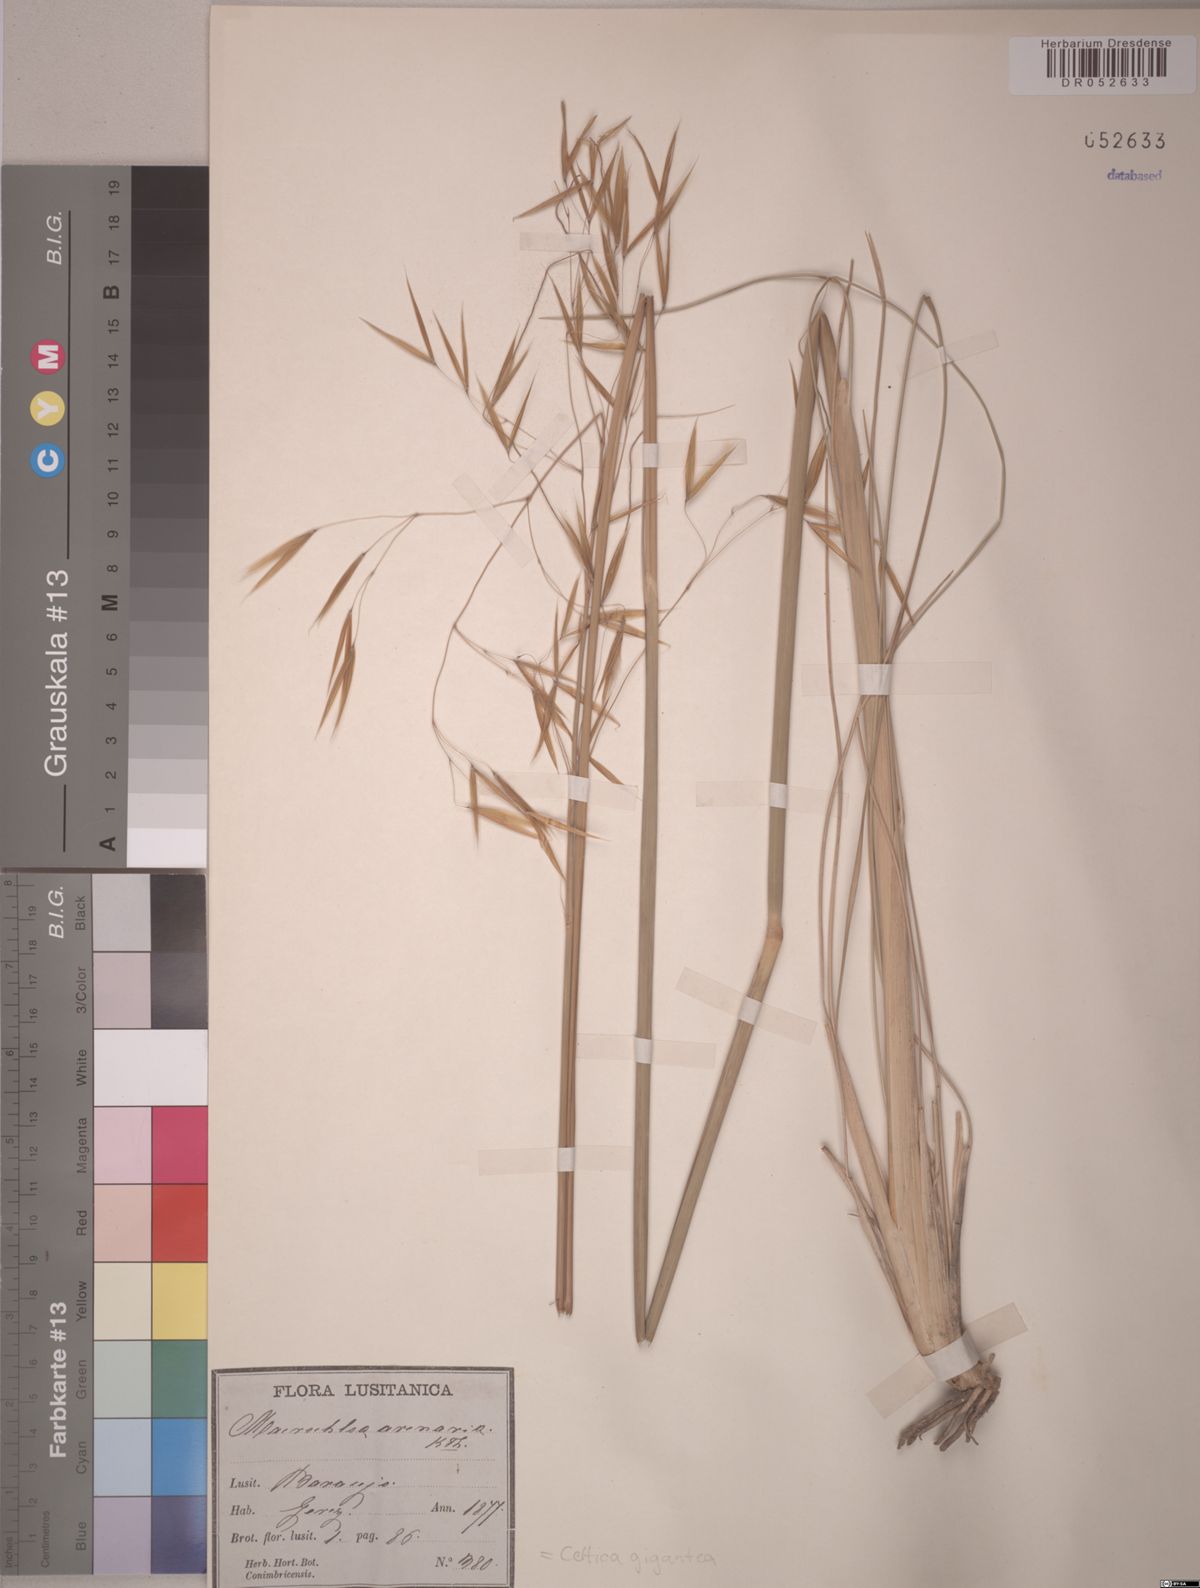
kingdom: Plantae
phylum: Tracheophyta
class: Liliopsida
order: Poales
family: Poaceae
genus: Celtica
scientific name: Celtica gigantea
